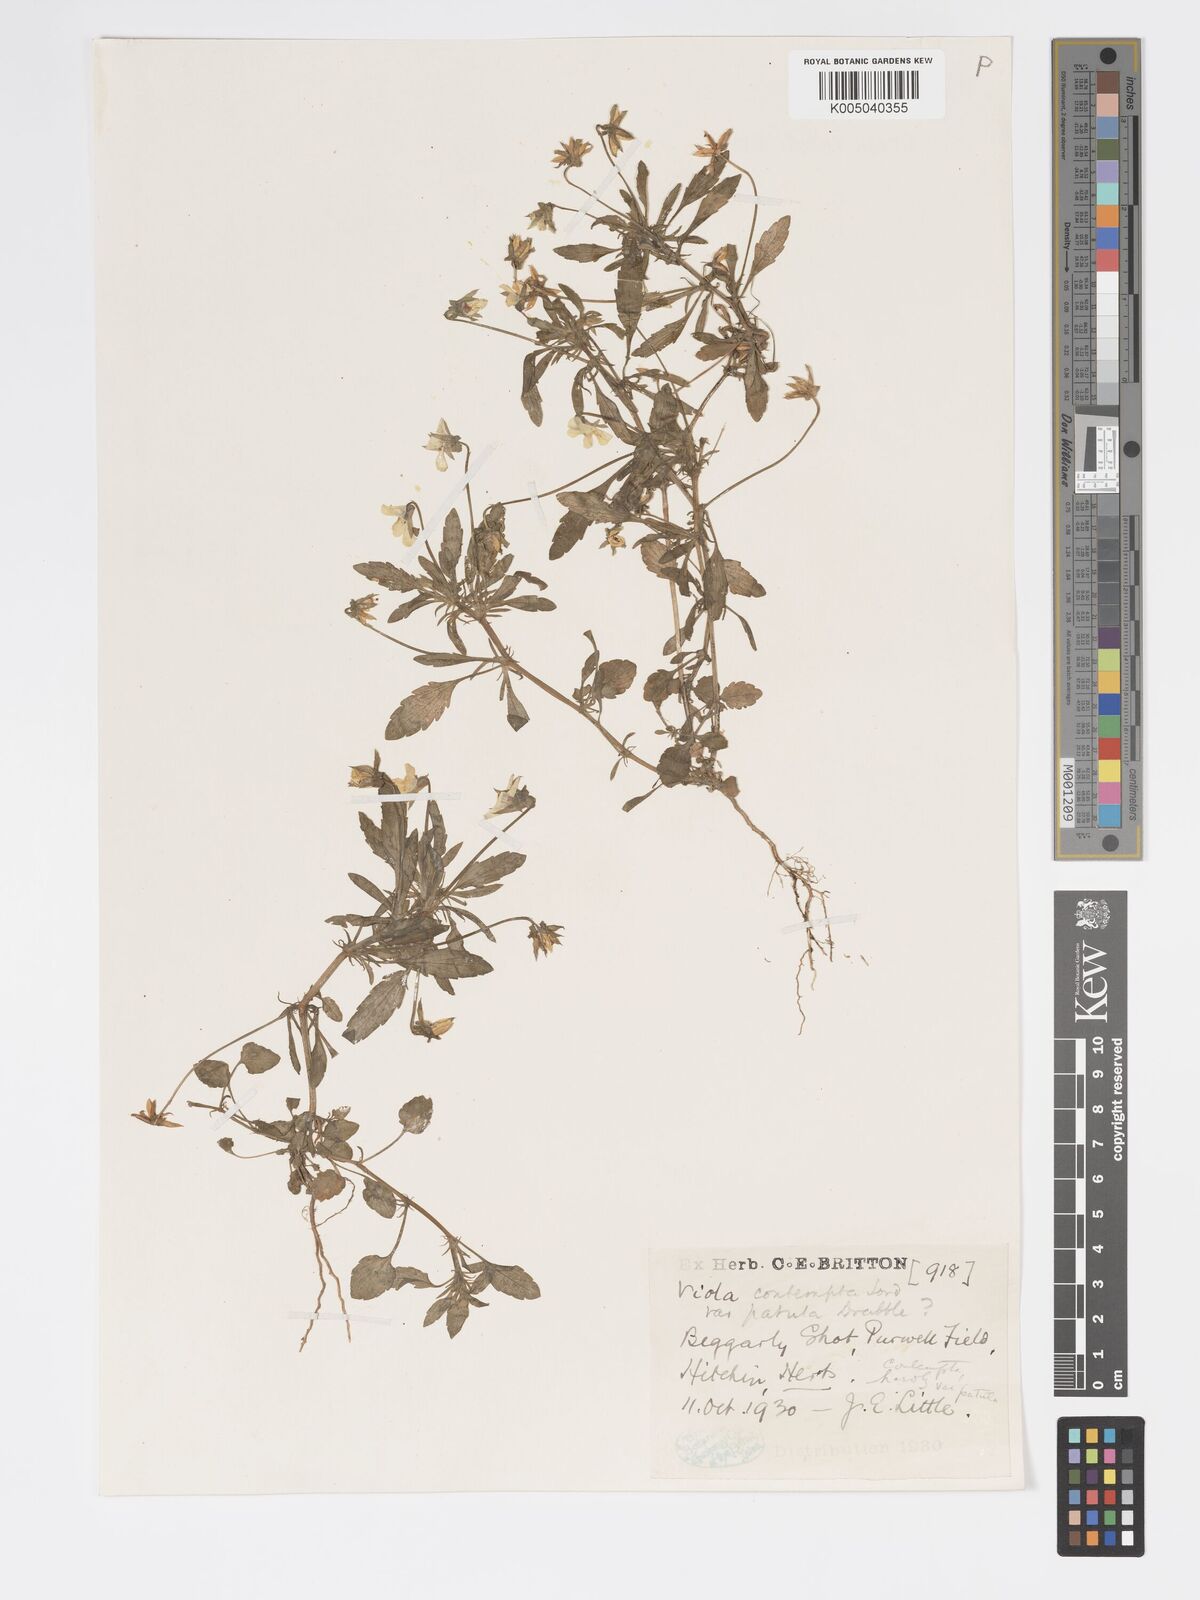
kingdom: Plantae
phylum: Tracheophyta
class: Magnoliopsida
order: Malpighiales
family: Violaceae
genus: Viola
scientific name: Viola arvensis
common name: Field pansy
